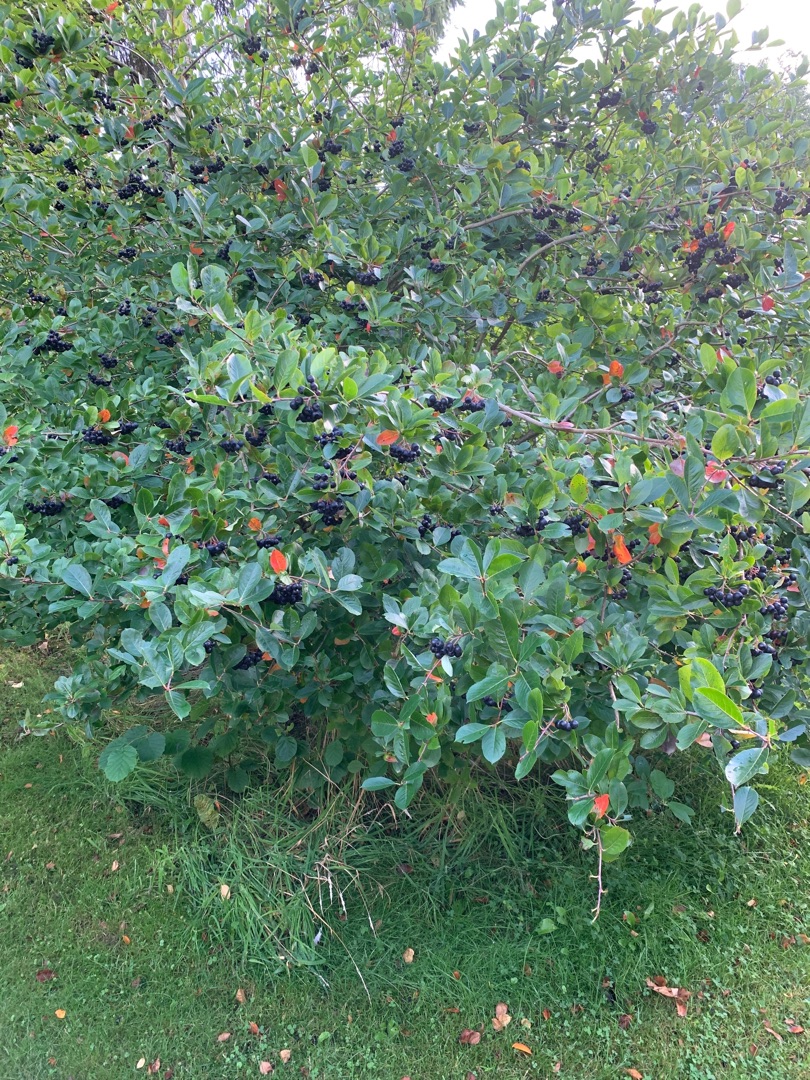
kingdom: Plantae
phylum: Tracheophyta
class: Magnoliopsida
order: Rosales
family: Rosaceae
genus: Aronia
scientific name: Aronia melanocarpa
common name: Sortfrugtet surbær
